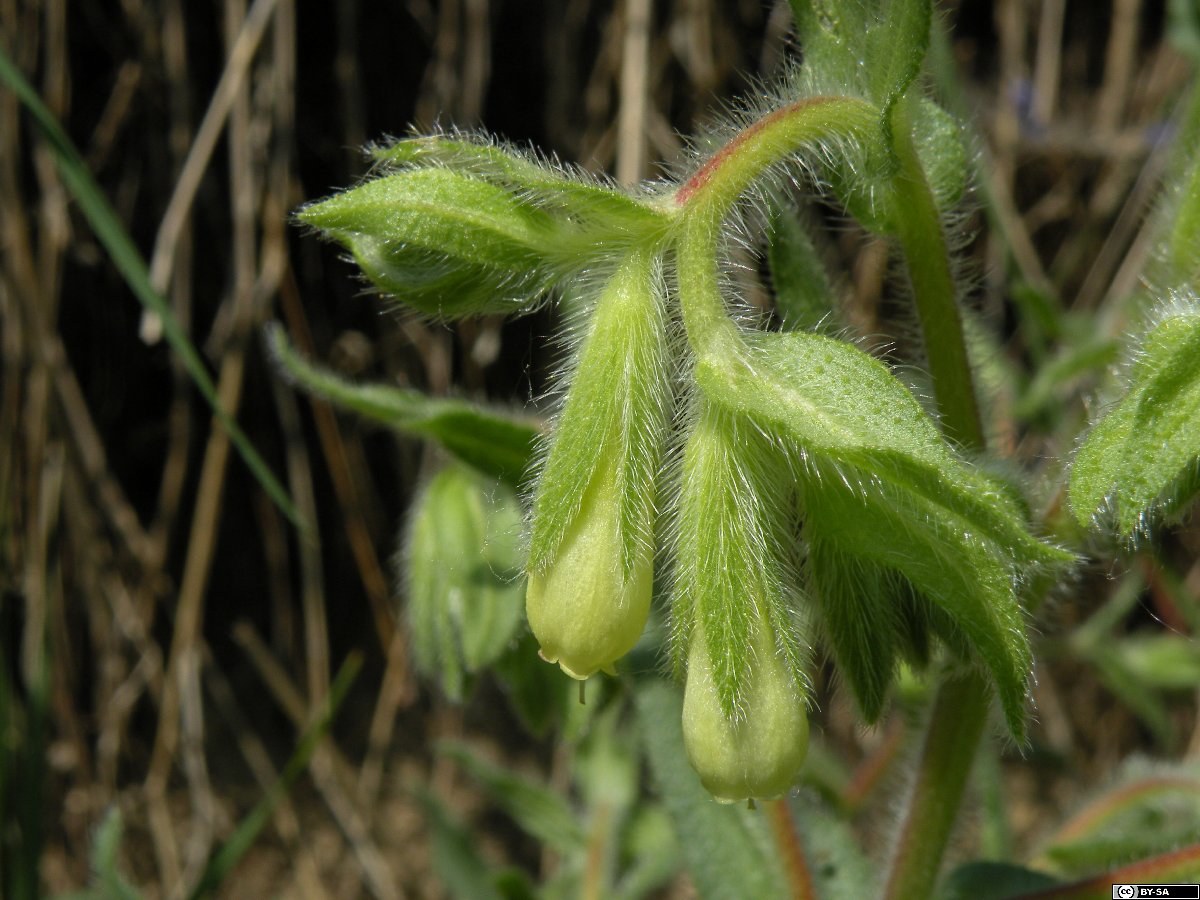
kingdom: Plantae
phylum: Tracheophyta
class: Magnoliopsida
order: Boraginales
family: Boraginaceae
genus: Onosma
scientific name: Onosma arenaria
